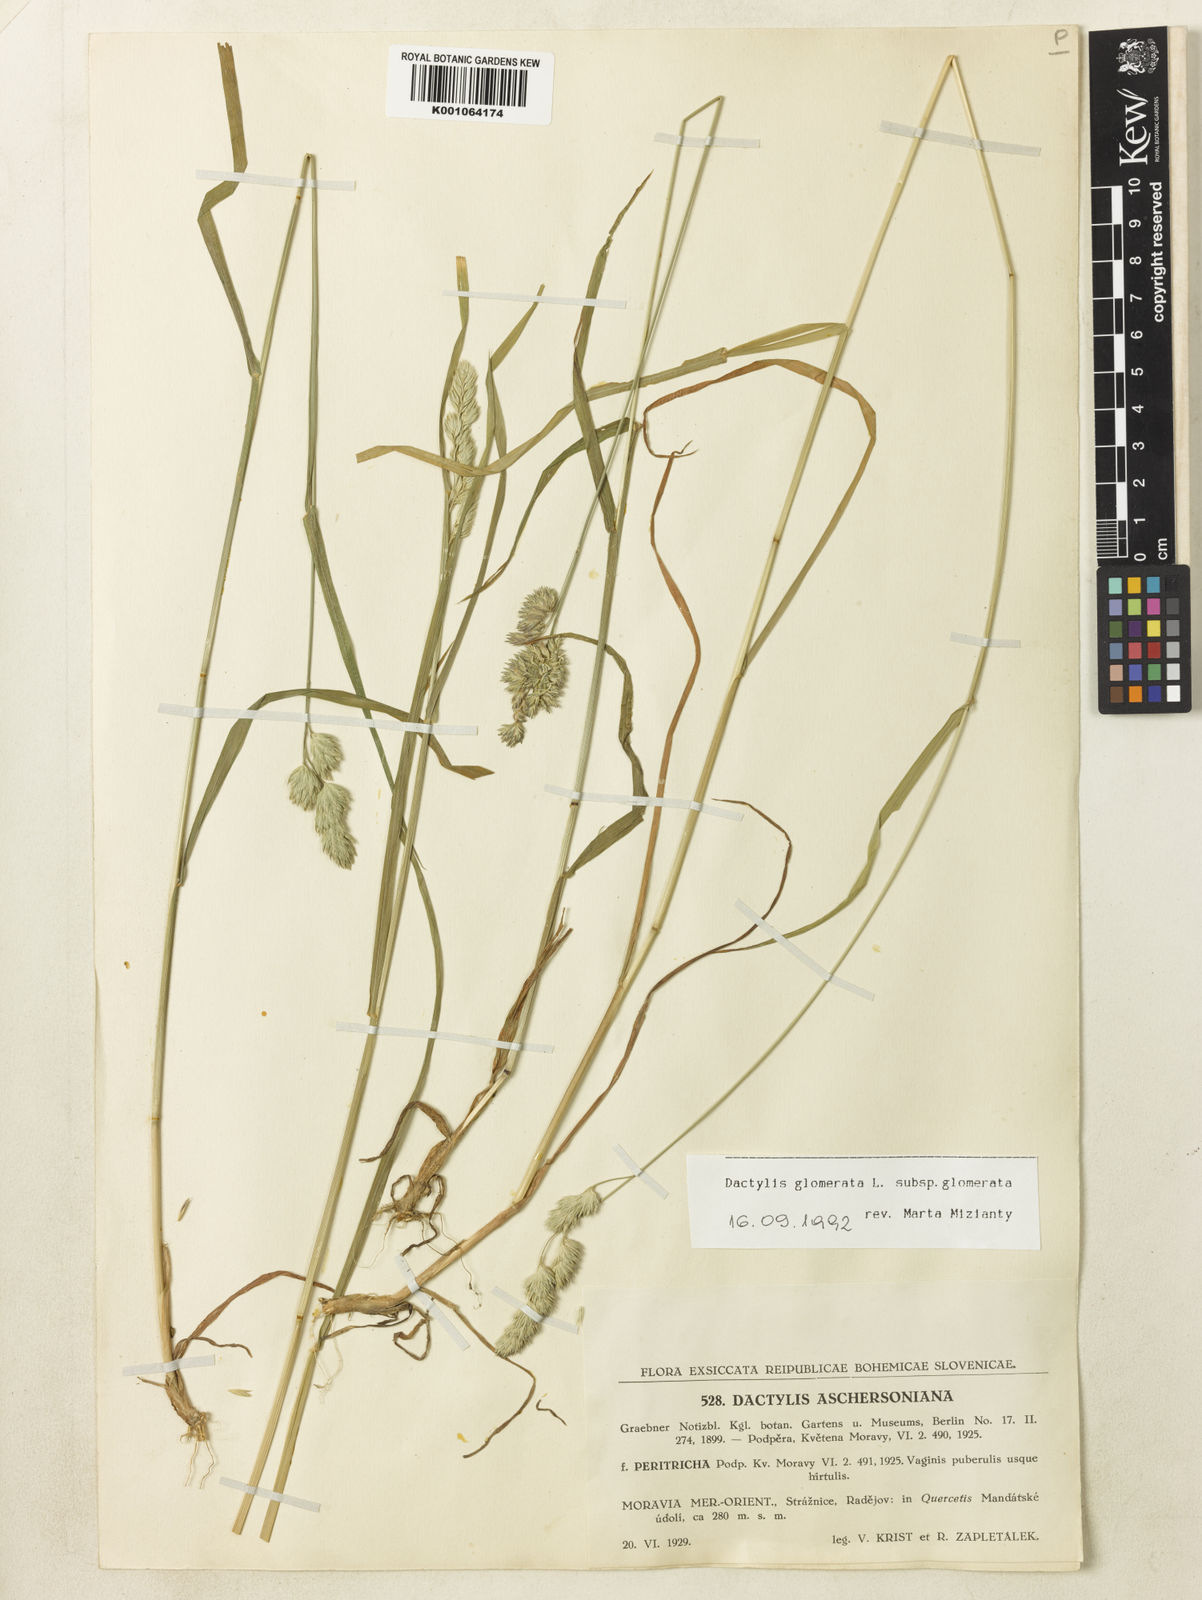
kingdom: Plantae
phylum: Tracheophyta
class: Liliopsida
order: Poales
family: Poaceae
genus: Dactylis
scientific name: Dactylis glomerata
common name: Orchardgrass
